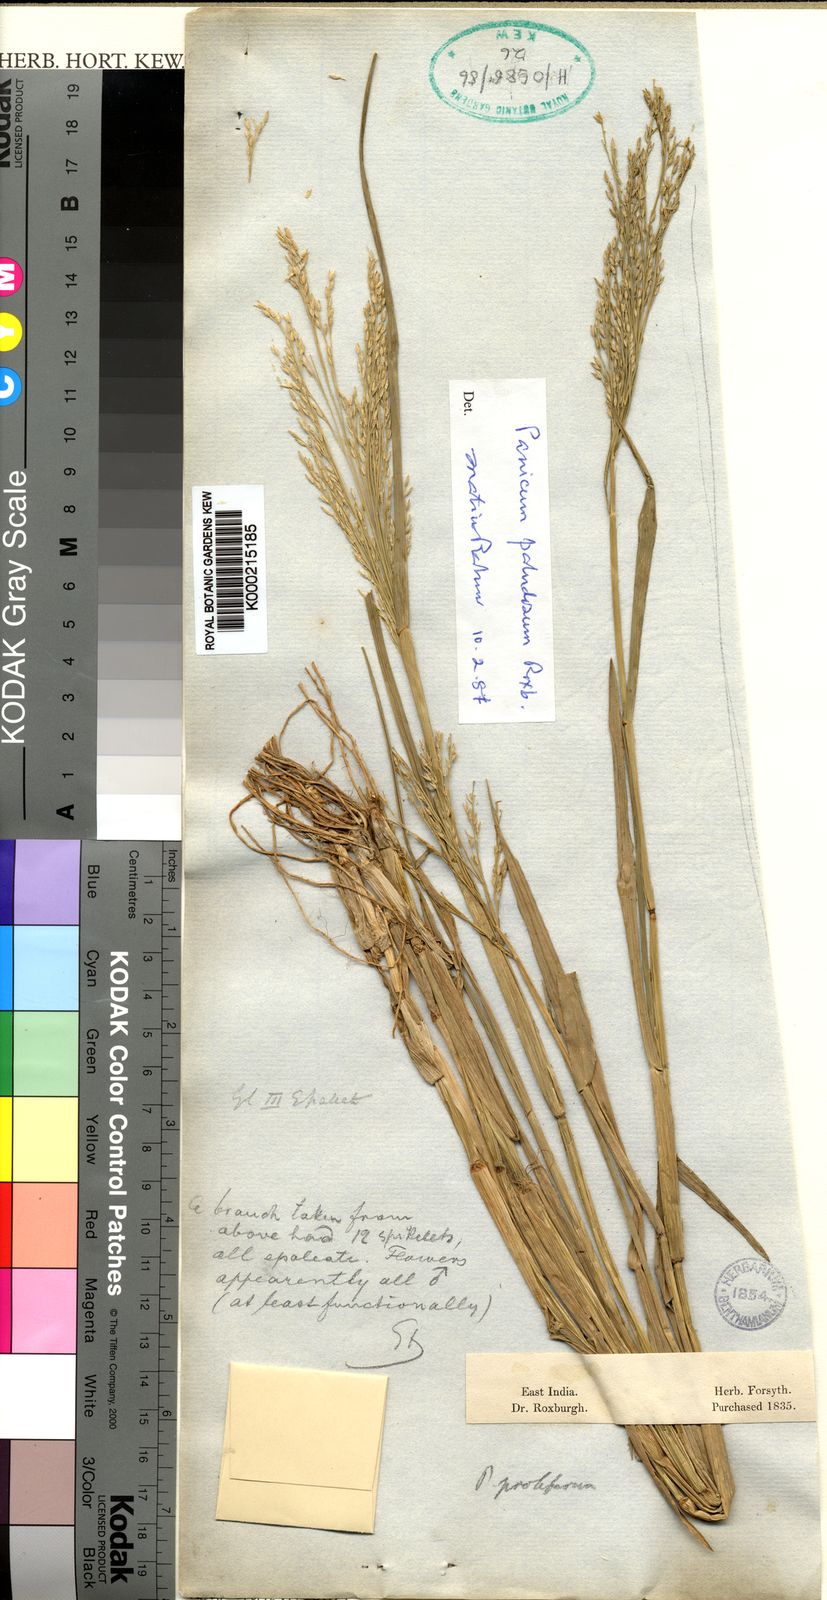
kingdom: Plantae
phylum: Tracheophyta
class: Liliopsida
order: Poales
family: Poaceae
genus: Louisiella
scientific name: Louisiella paludosa
